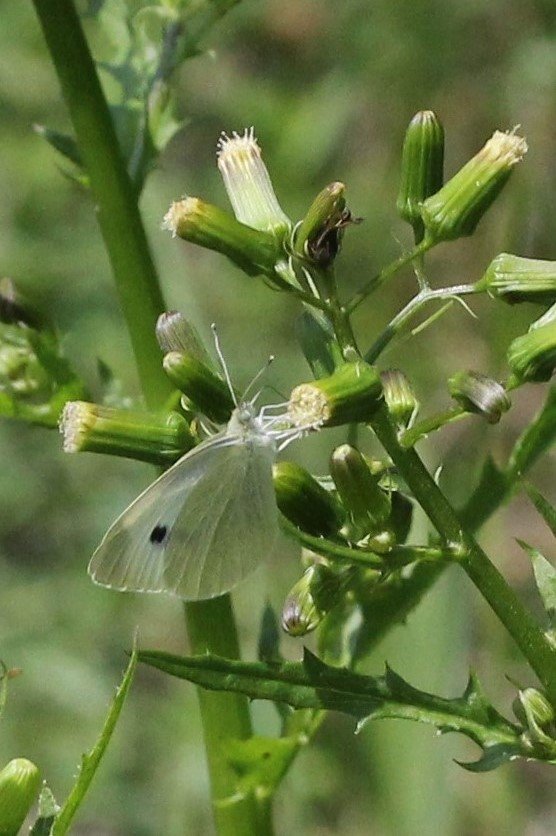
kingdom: Animalia
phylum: Arthropoda
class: Insecta
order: Lepidoptera
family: Pieridae
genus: Pieris
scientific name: Pieris rapae
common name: Cabbage White
